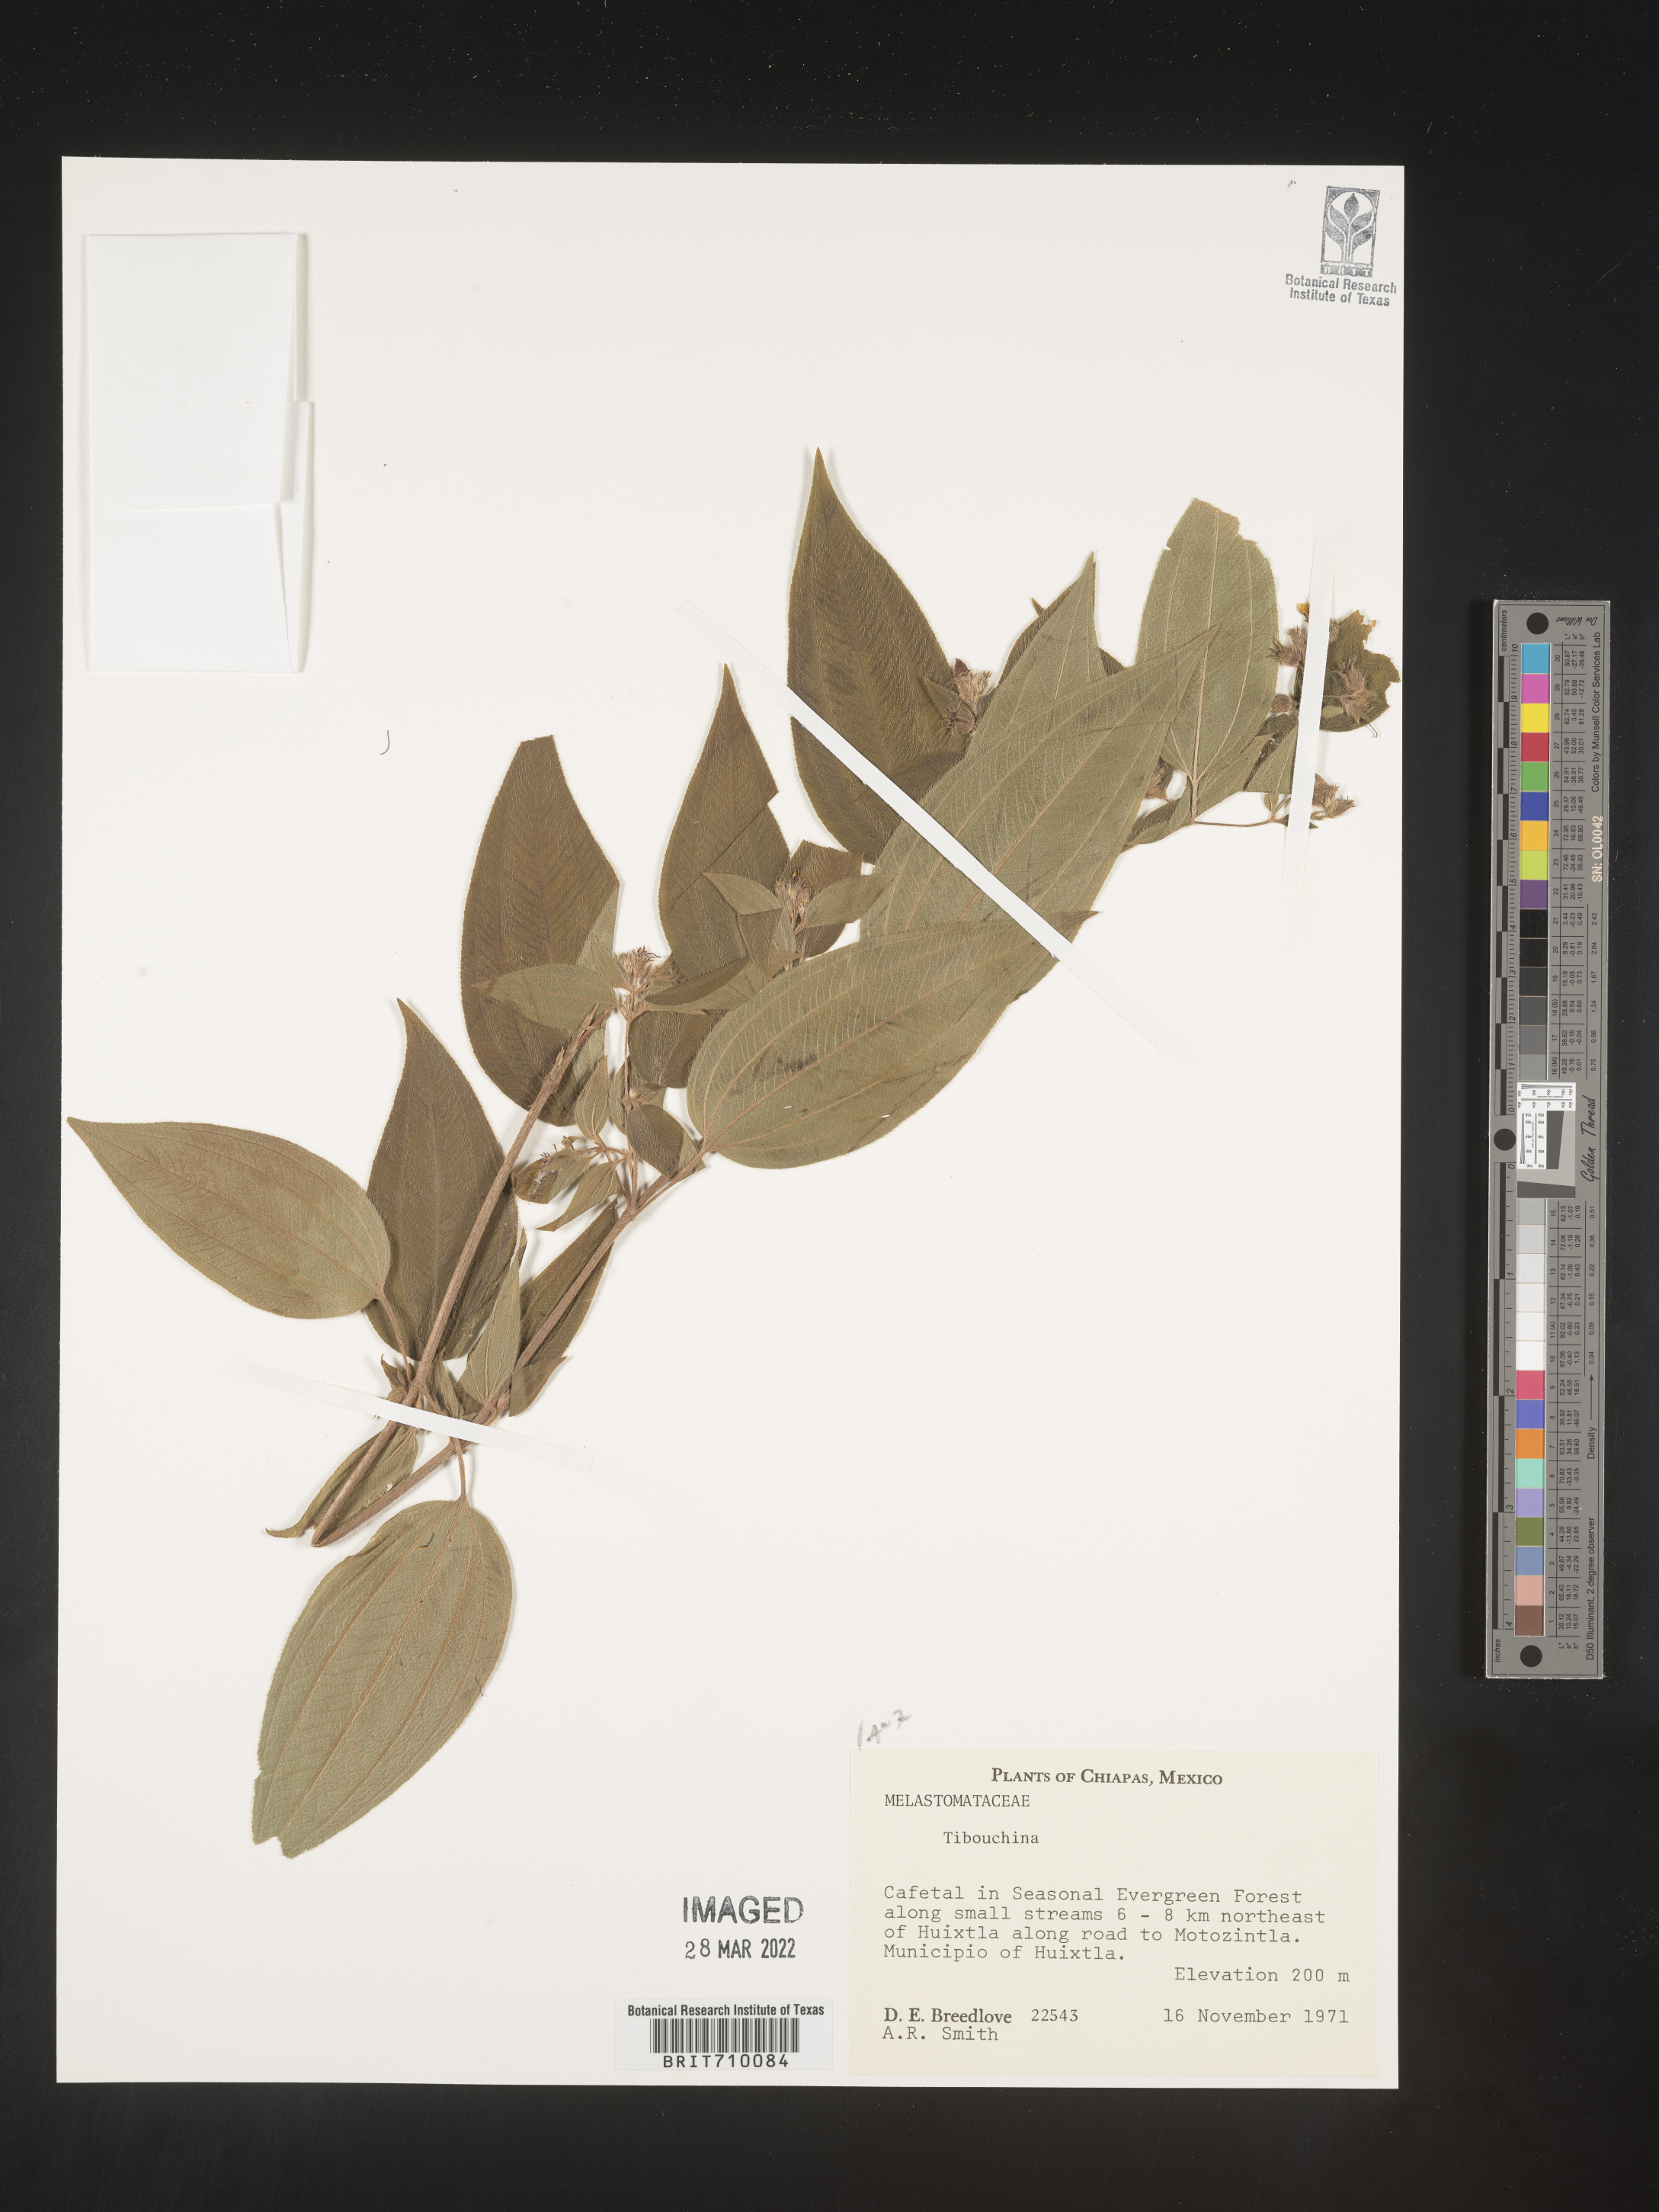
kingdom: Plantae
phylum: Tracheophyta
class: Magnoliopsida
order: Myrtales
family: Melastomataceae
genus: Tibouchina
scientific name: Tibouchina
